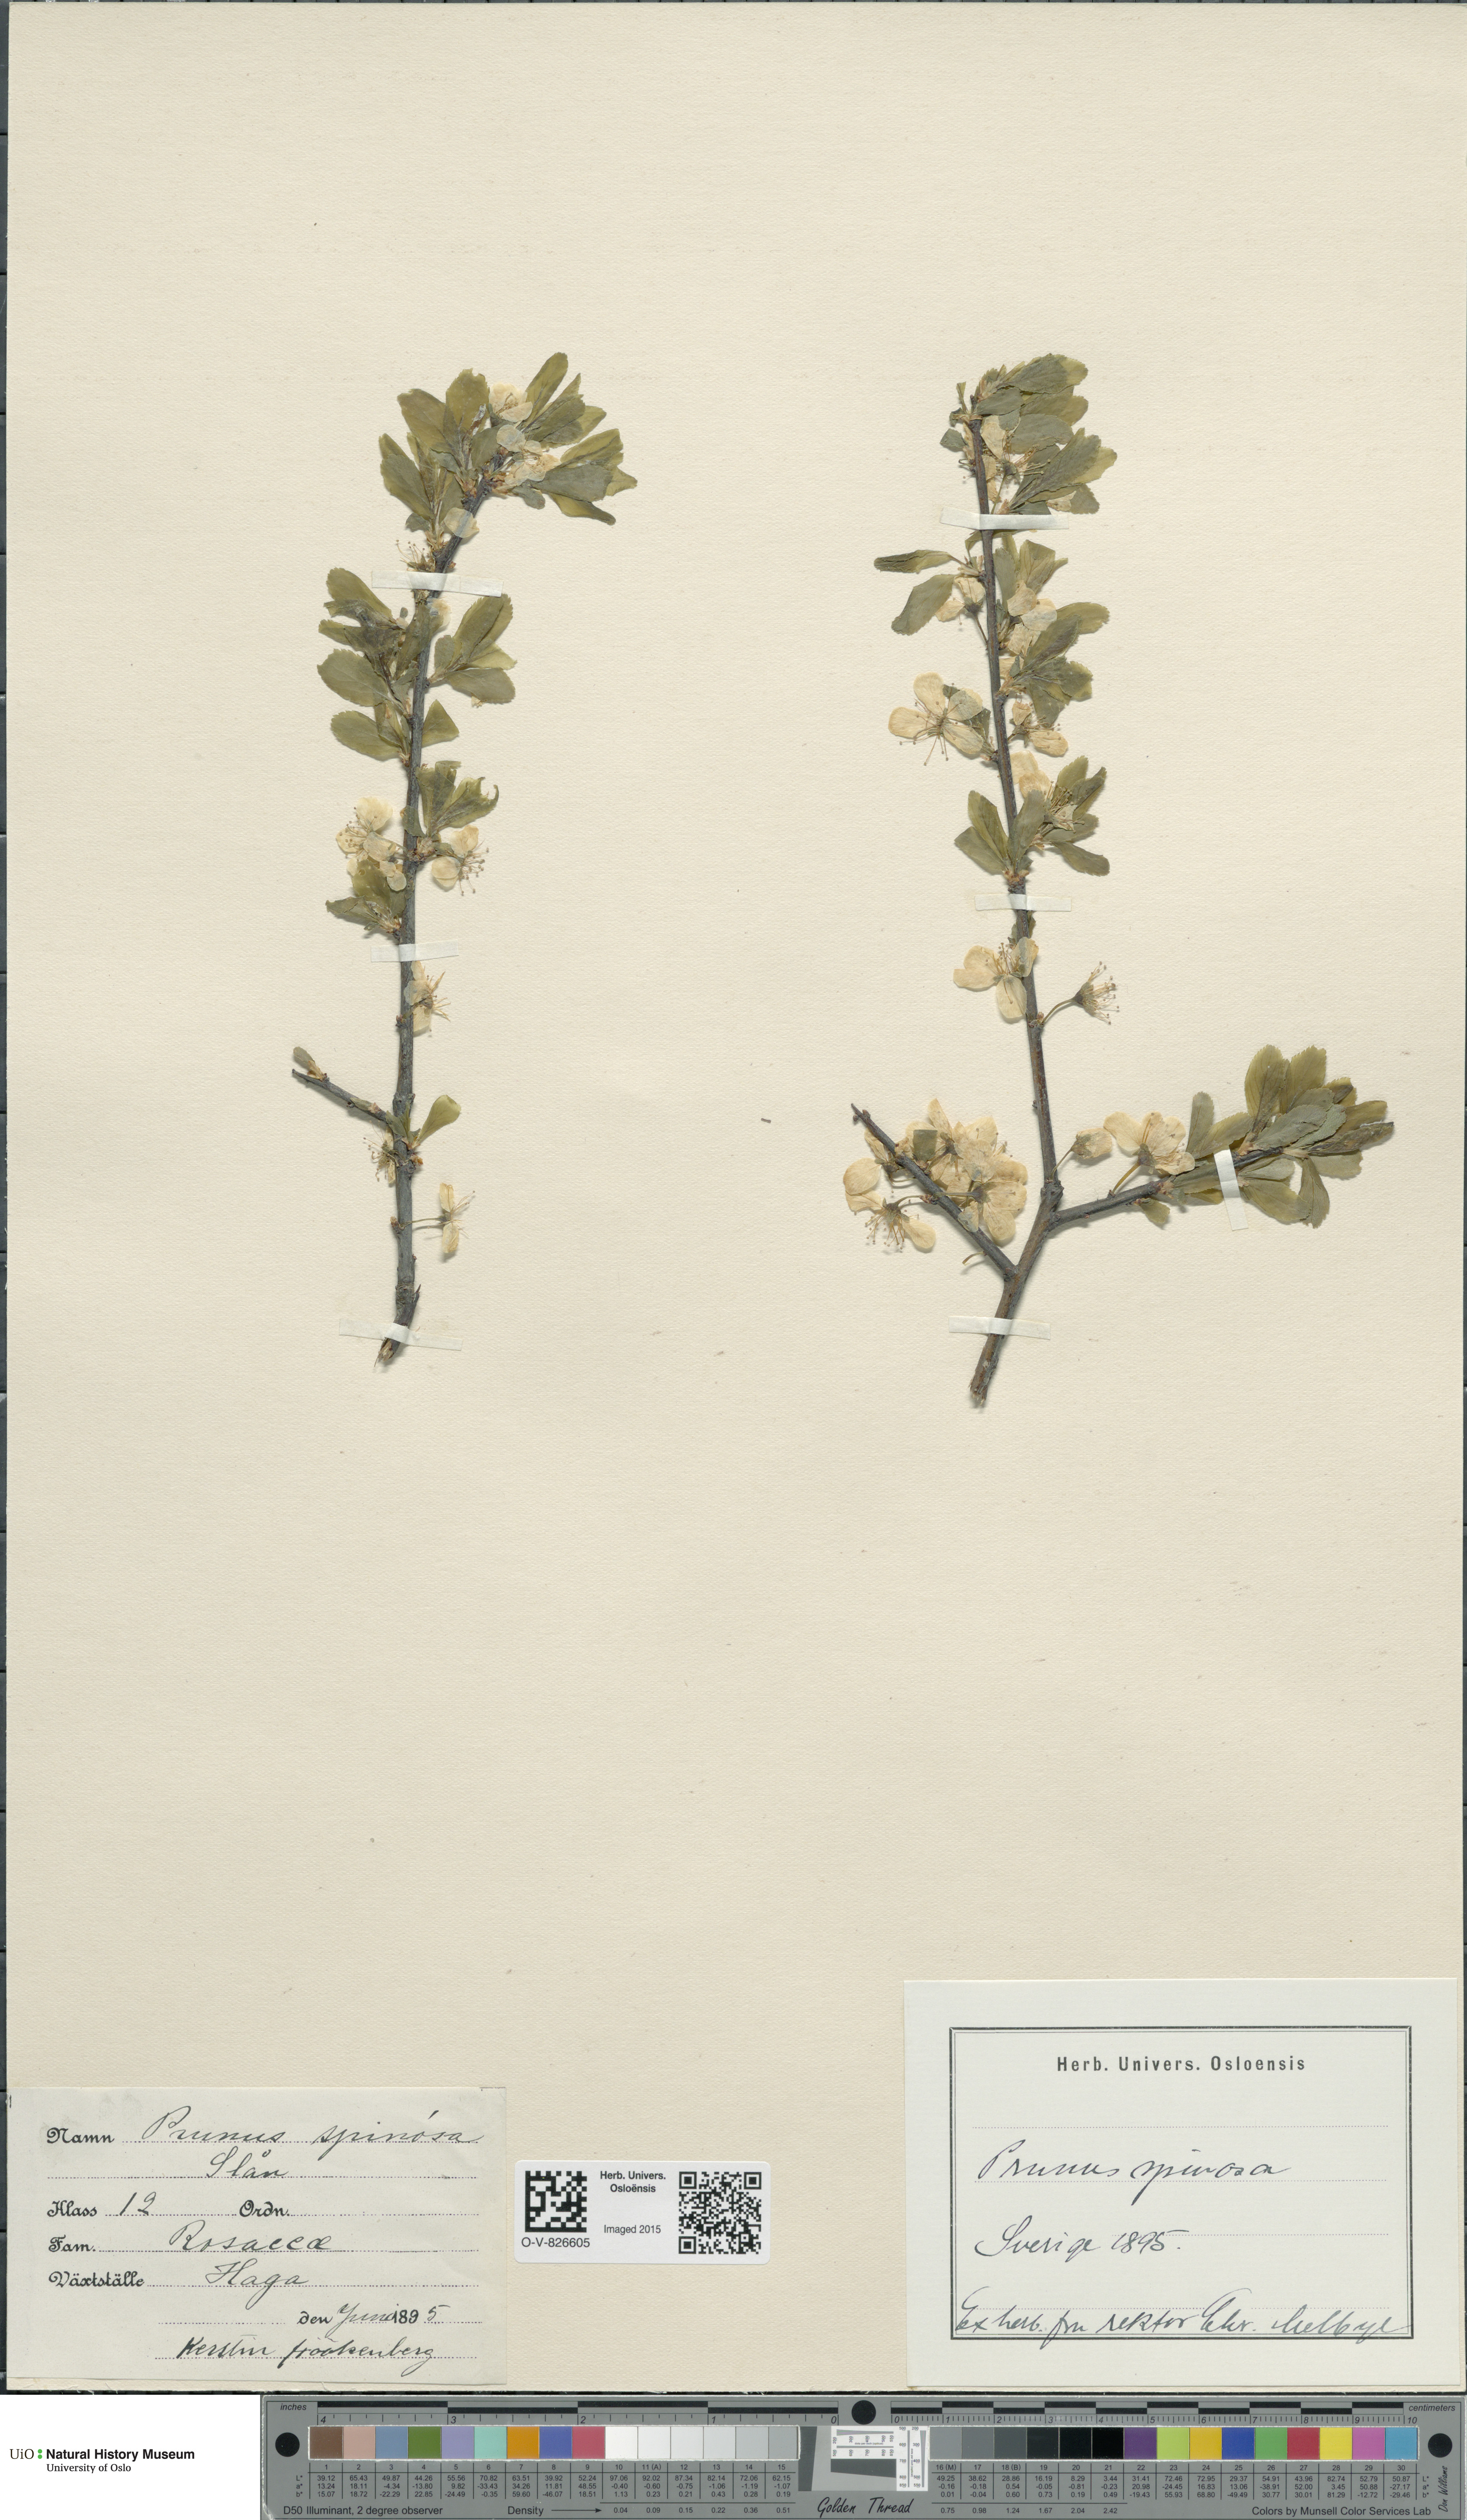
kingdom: Plantae
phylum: Tracheophyta
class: Magnoliopsida
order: Rosales
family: Rosaceae
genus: Prunus
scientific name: Prunus spinosa
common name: Blackthorn
